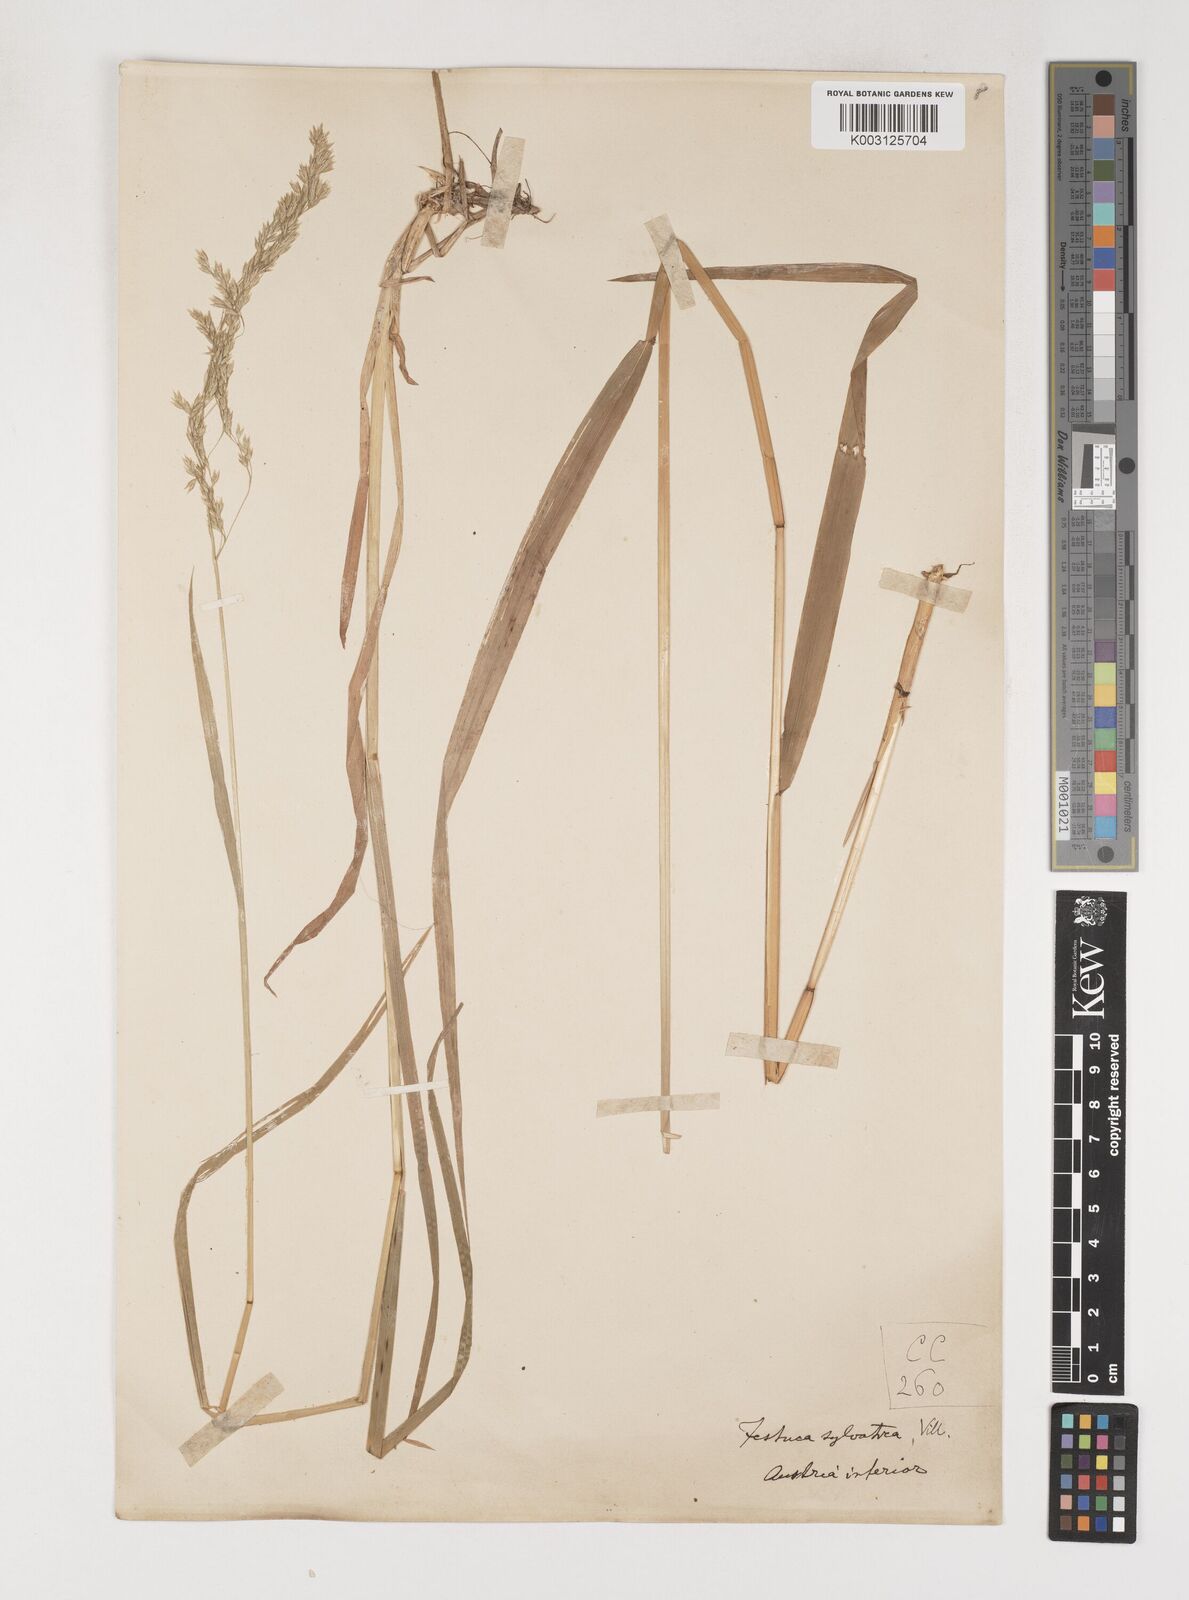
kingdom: Plantae
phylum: Tracheophyta
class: Liliopsida
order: Poales
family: Poaceae
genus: Poa
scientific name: Poa chaixii
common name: Broad-leaved meadow-grass
